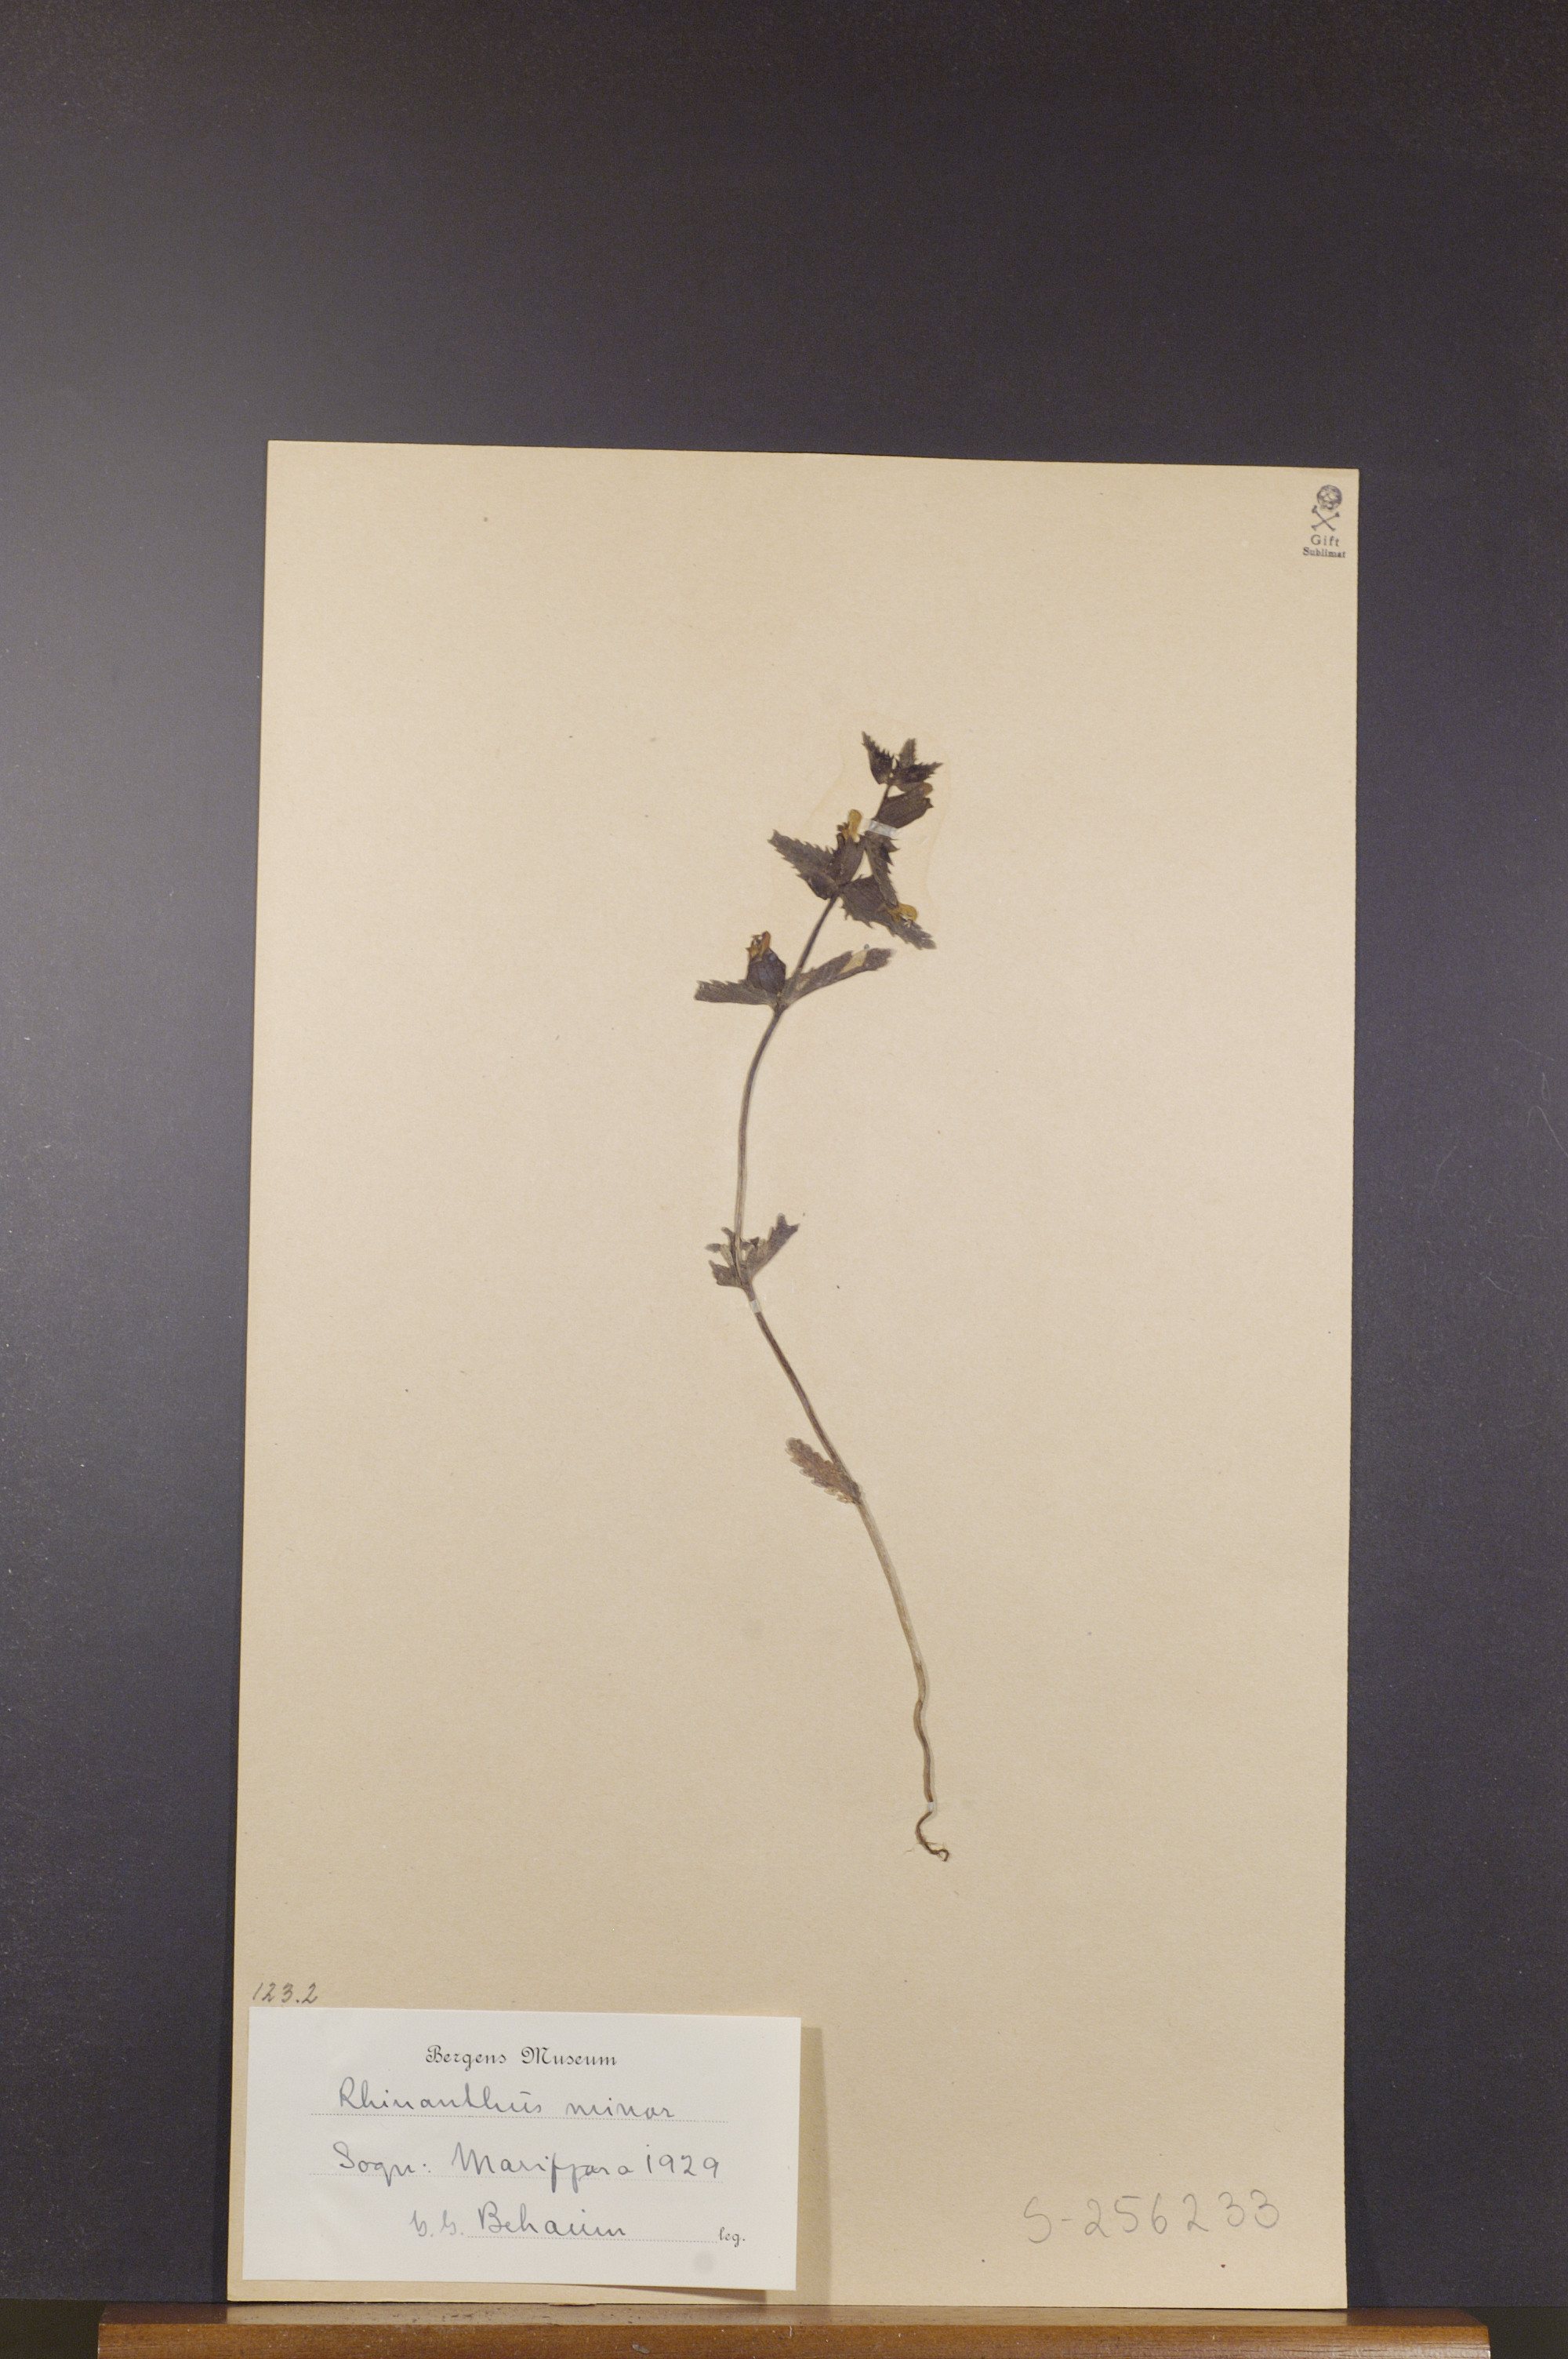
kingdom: Plantae
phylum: Tracheophyta
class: Magnoliopsida
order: Lamiales
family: Orobanchaceae
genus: Rhinanthus
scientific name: Rhinanthus minor
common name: Yellow-rattle
